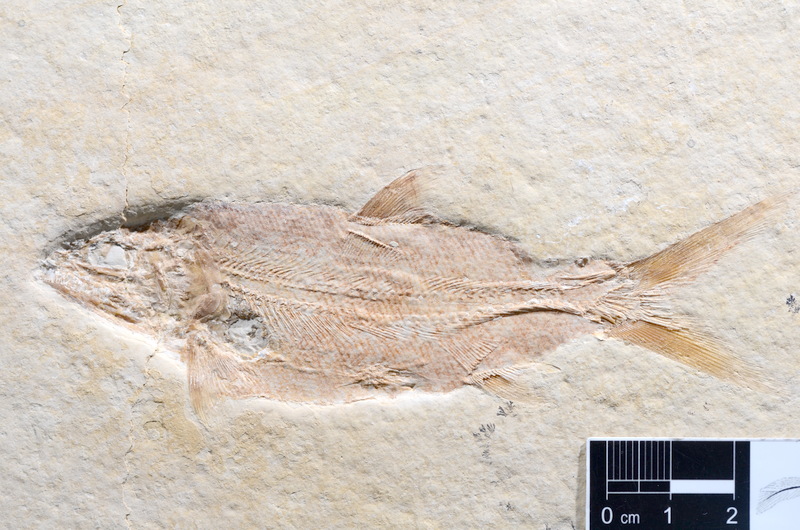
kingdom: Animalia
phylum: Chordata
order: Amiiformes
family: Caturidae
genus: Caturus
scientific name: Caturus furcatus
